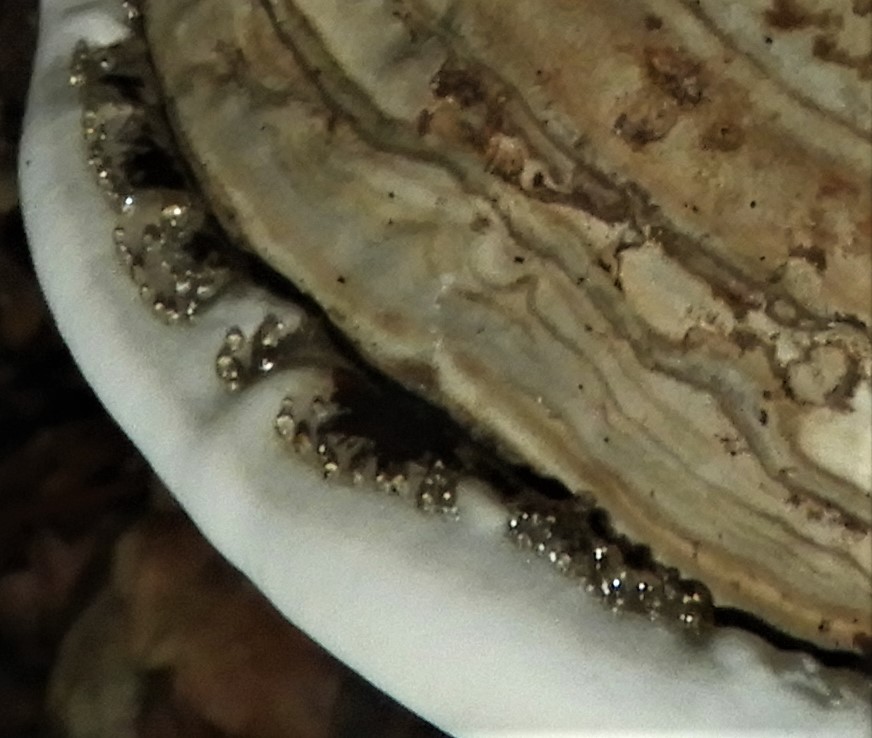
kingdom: Fungi
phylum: Basidiomycota
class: Agaricomycetes
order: Polyporales
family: Polyporaceae
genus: Ganoderma
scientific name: Ganoderma applanatum
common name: flad lakporesvamp
